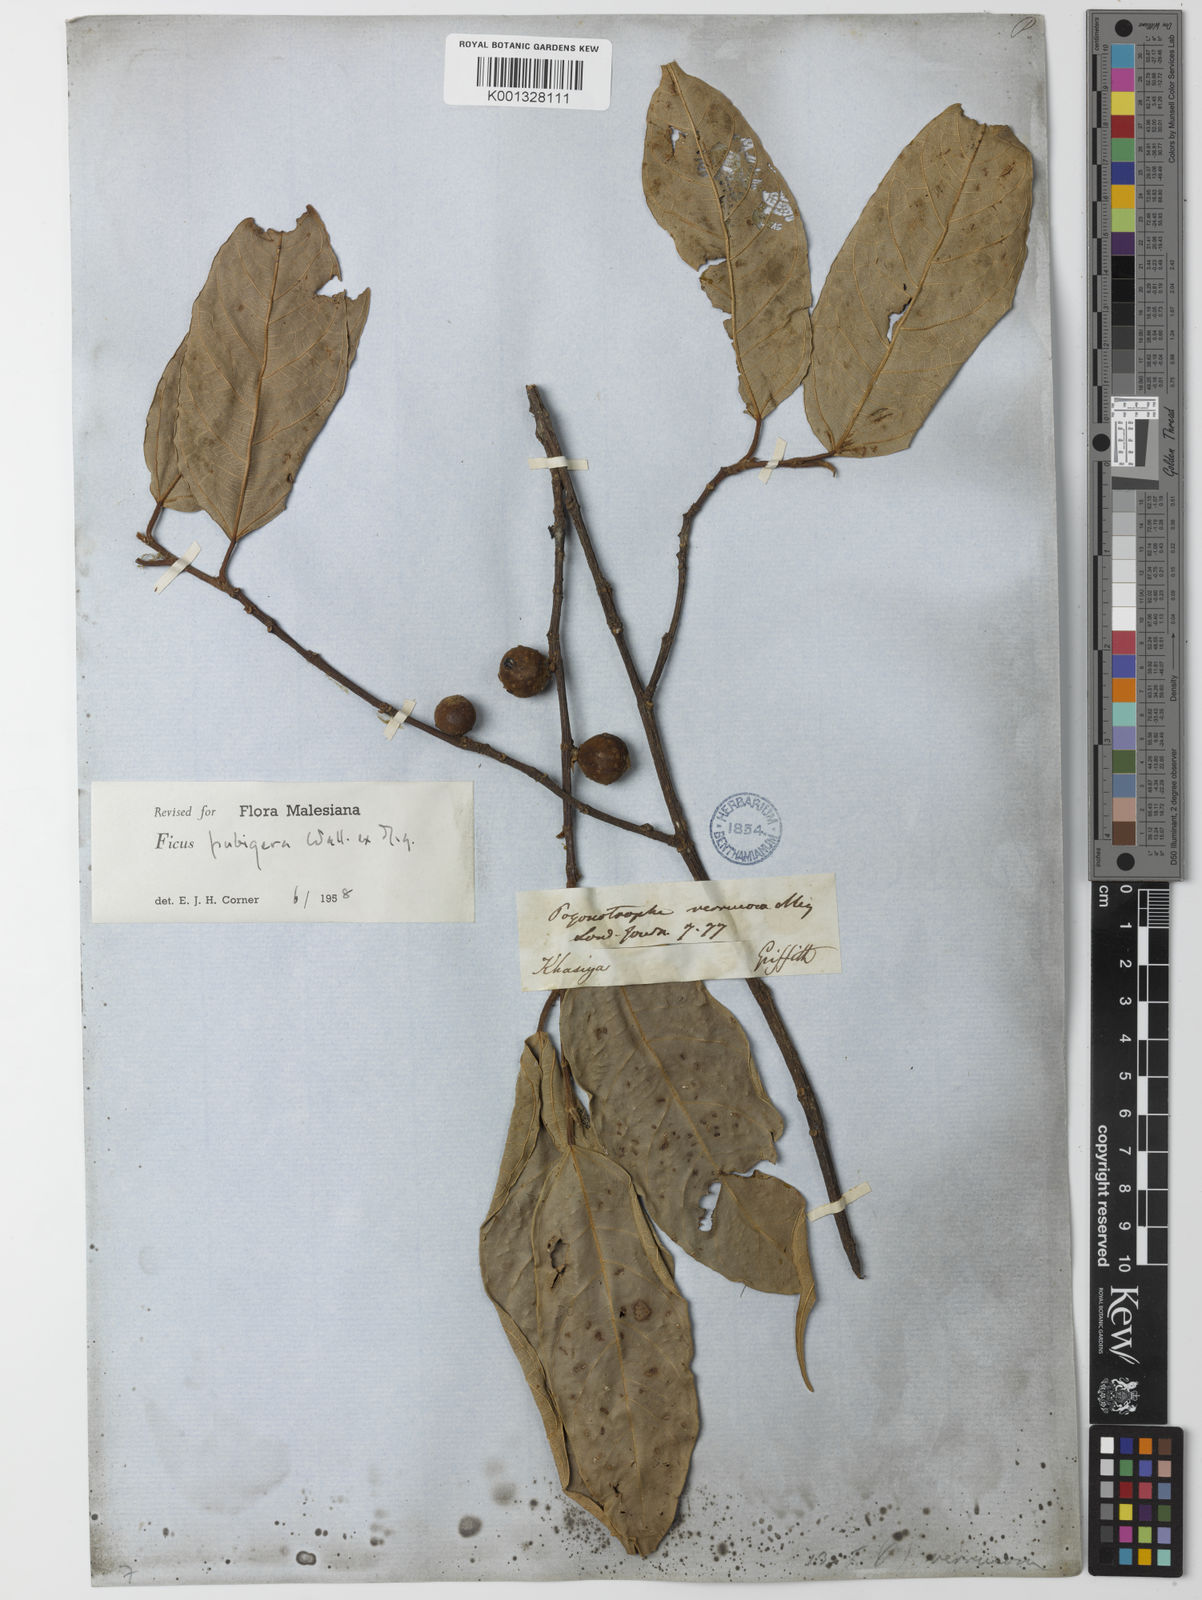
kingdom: Plantae
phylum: Tracheophyta
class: Magnoliopsida
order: Rosales
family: Moraceae
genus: Ficus
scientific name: Ficus
